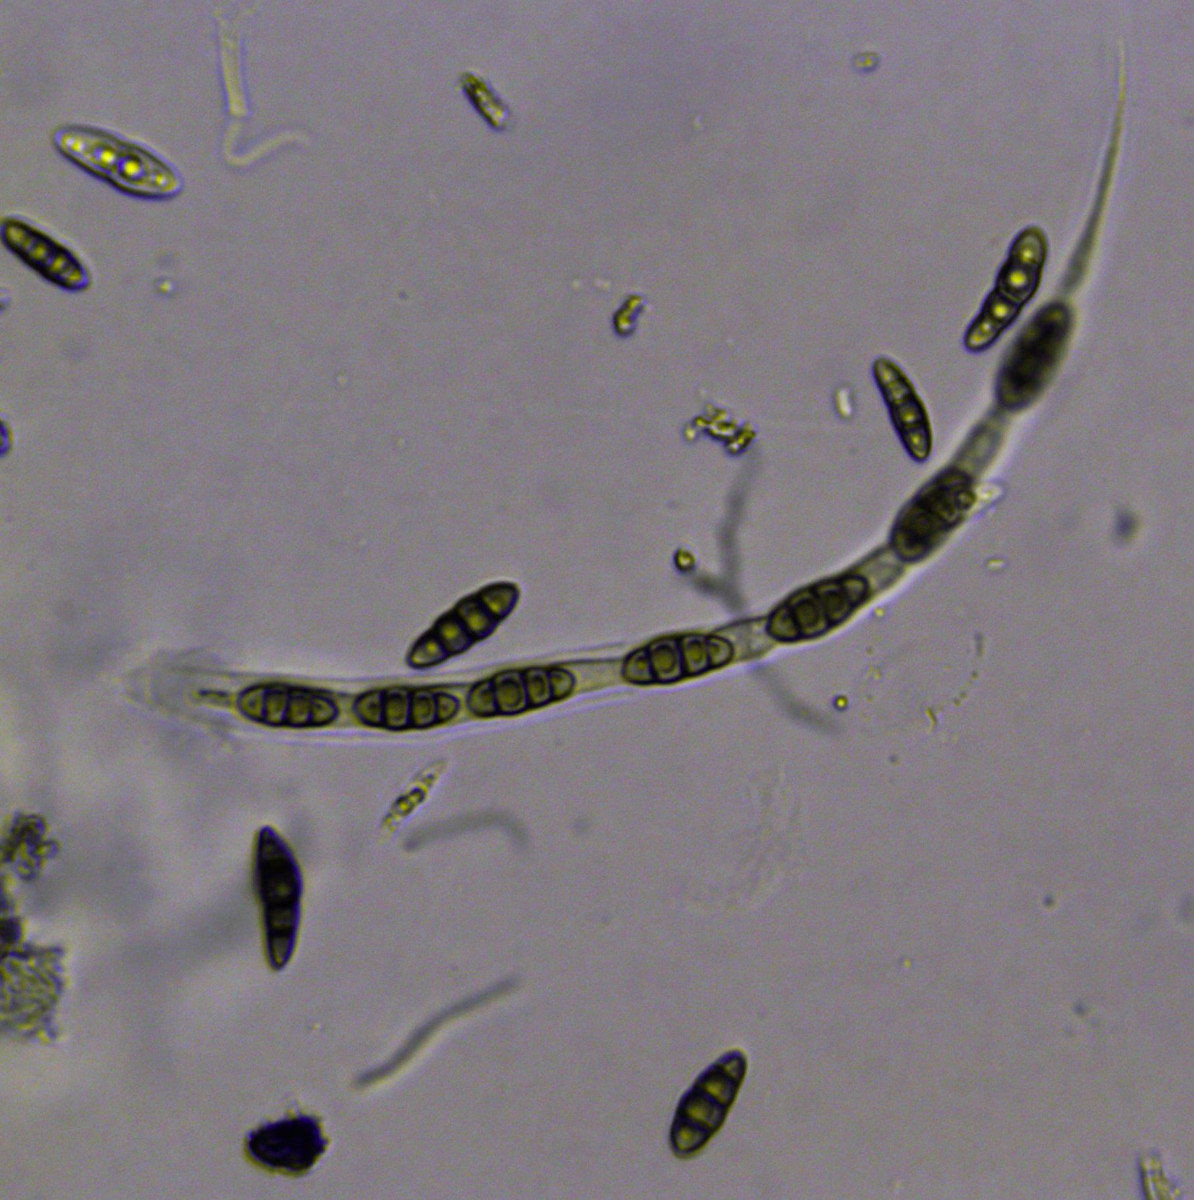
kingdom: Fungi
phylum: Ascomycota
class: Dothideomycetes
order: Pleosporales
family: Lophiostomataceae
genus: Lophiostoma
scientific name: Lophiostoma quadrinucleatum
